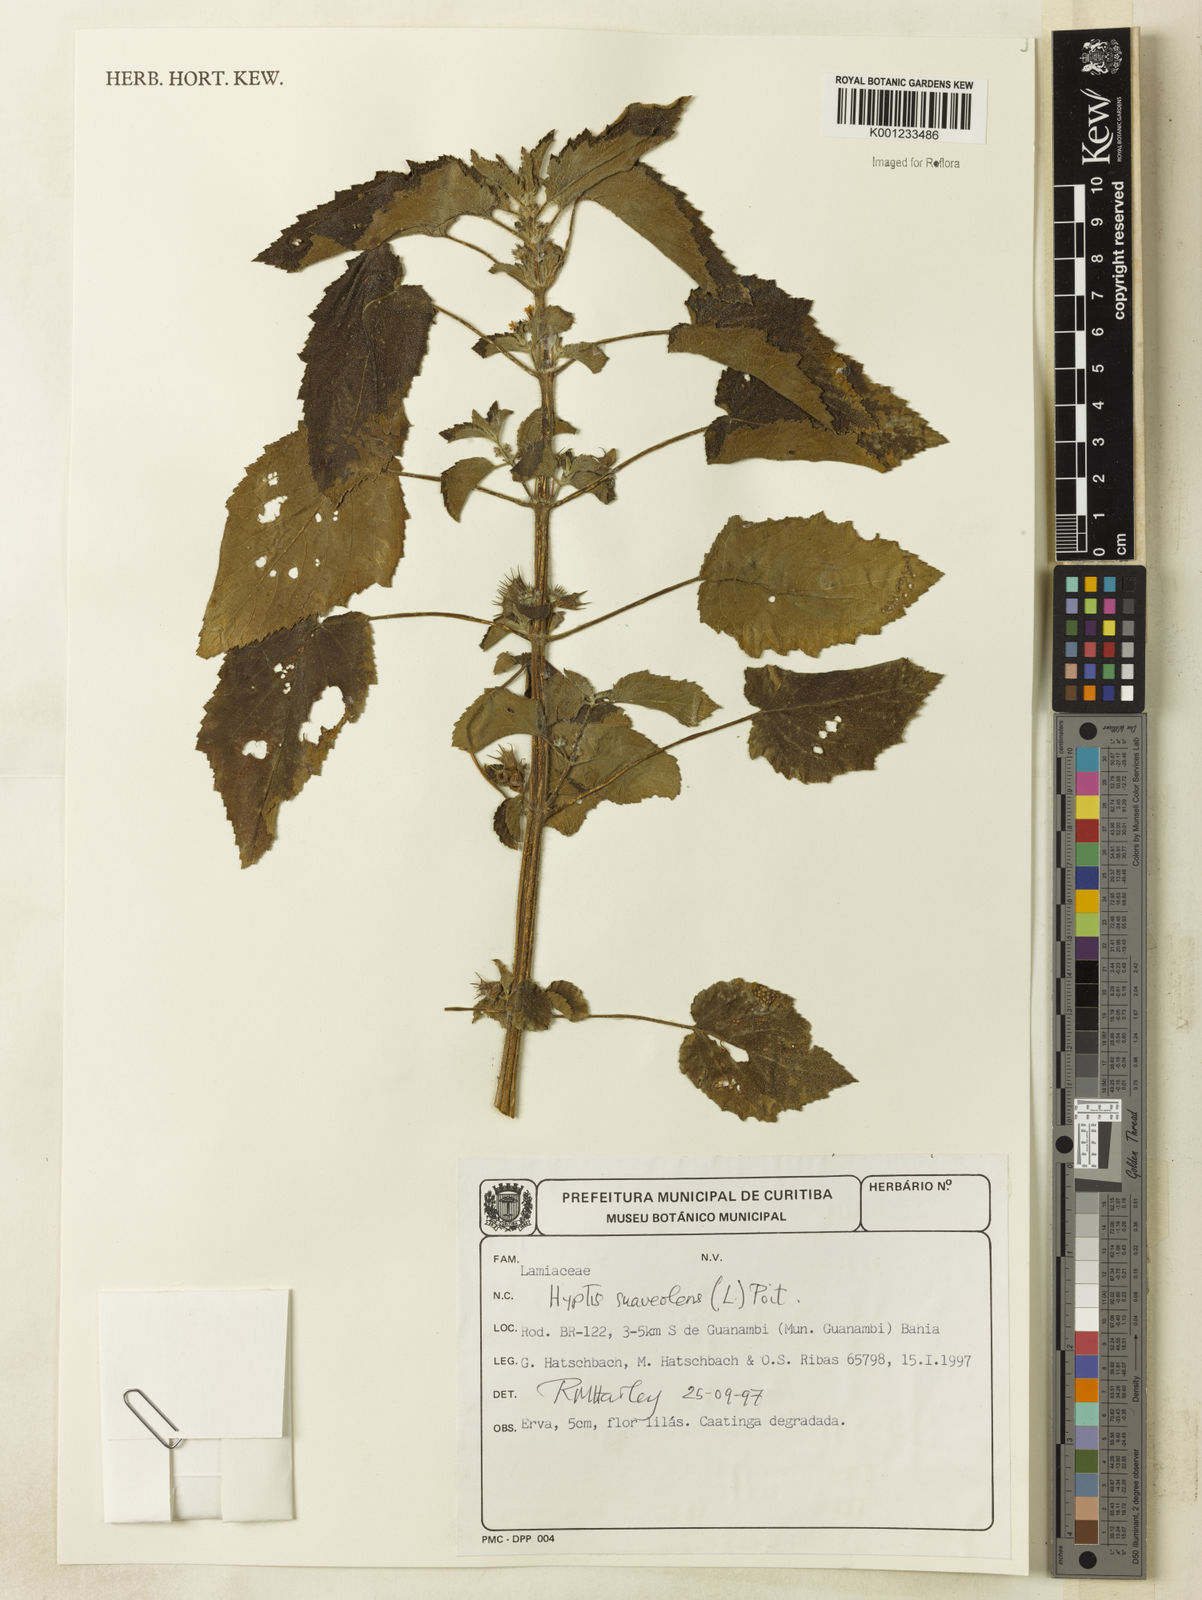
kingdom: Plantae
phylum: Tracheophyta
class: Magnoliopsida
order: Lamiales
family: Lamiaceae
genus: Mesosphaerum
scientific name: Mesosphaerum suaveolens
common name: Pignut
